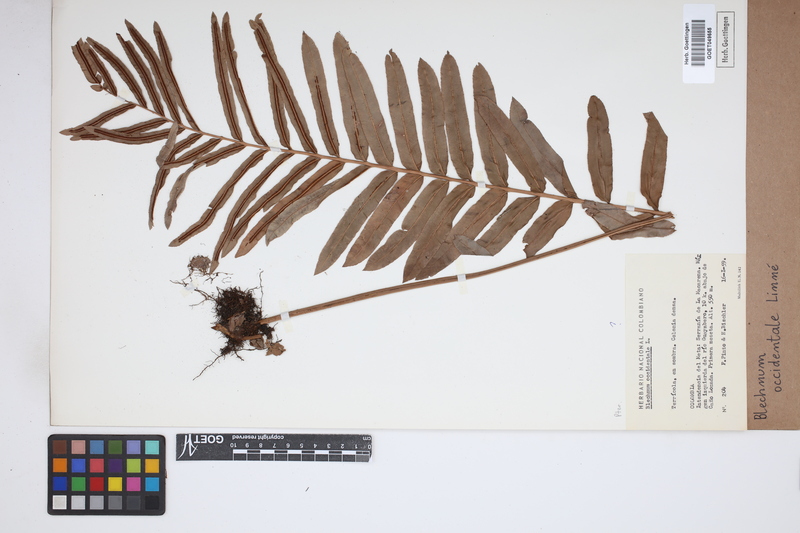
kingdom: Plantae
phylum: Tracheophyta
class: Polypodiopsida
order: Polypodiales
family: Blechnaceae
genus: Blechnum
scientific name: Blechnum occidentale
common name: Hammock fern
